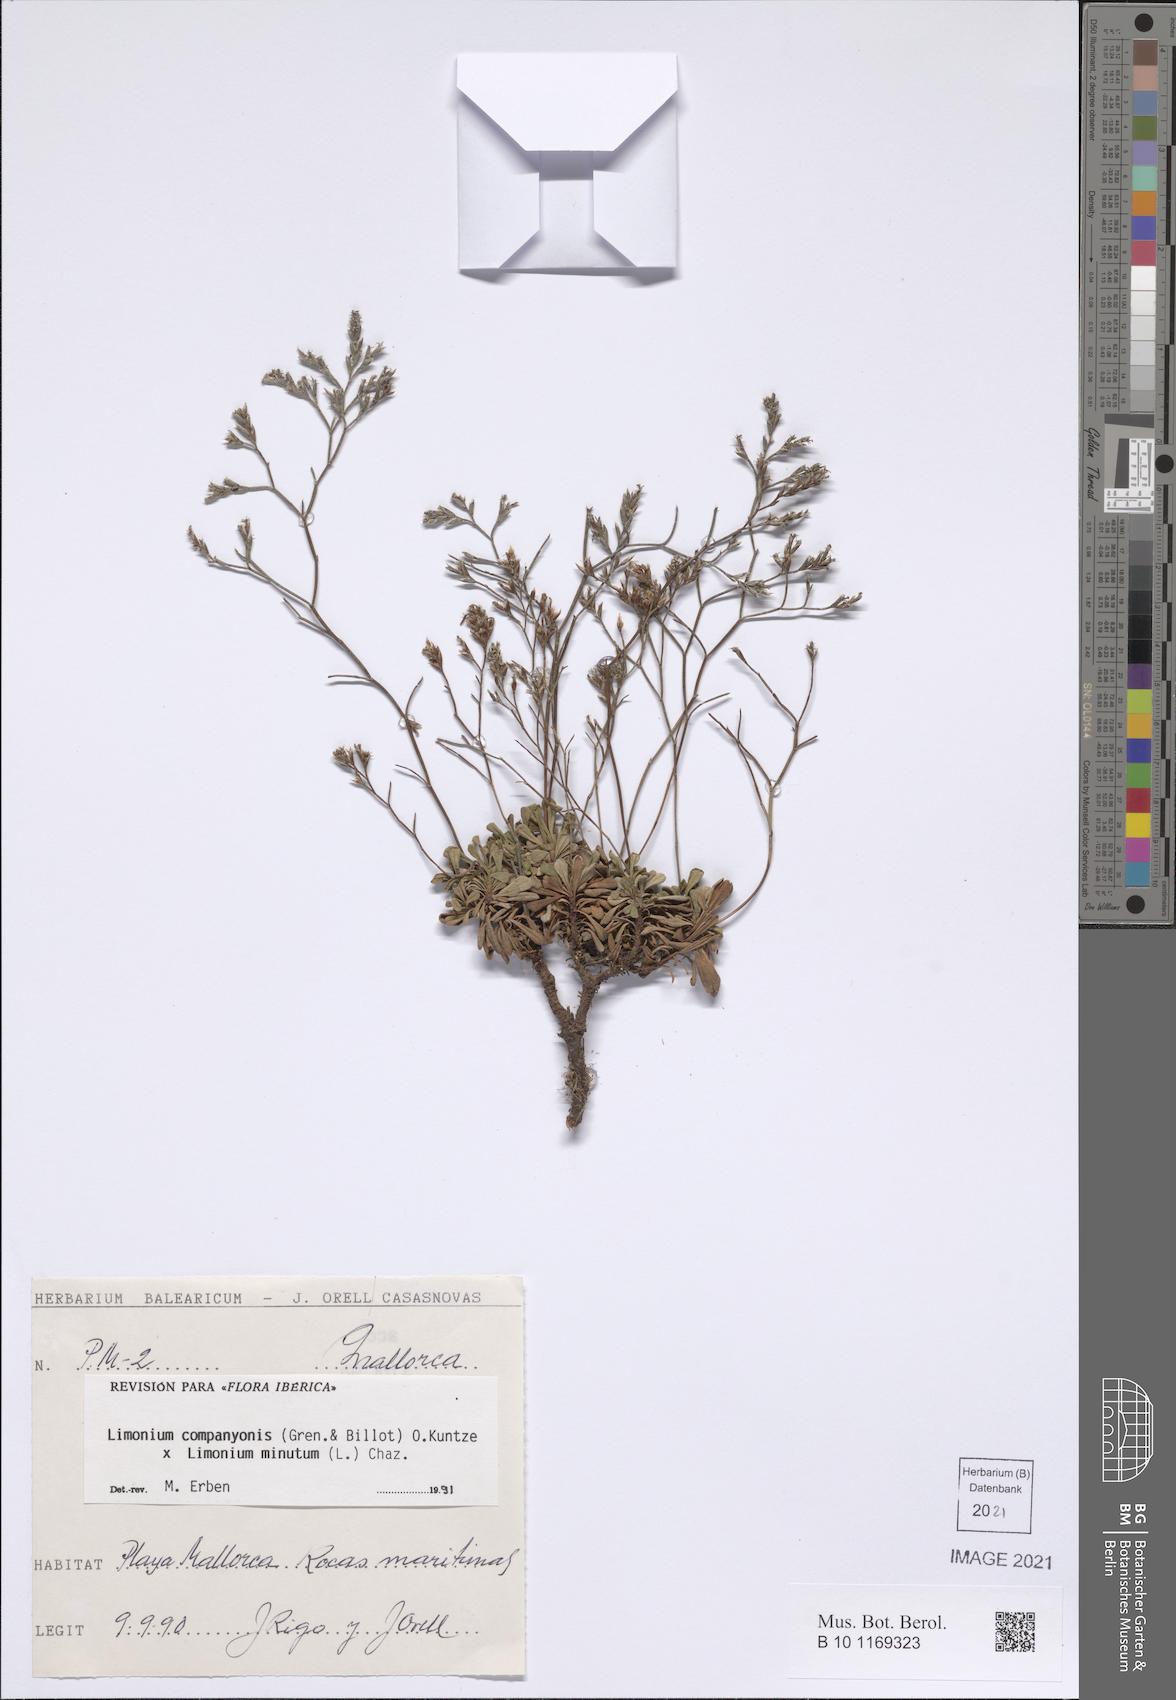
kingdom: Plantae
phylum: Tracheophyta
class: Magnoliopsida
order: Caryophyllales
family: Plumbaginaceae
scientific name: Plumbaginaceae
